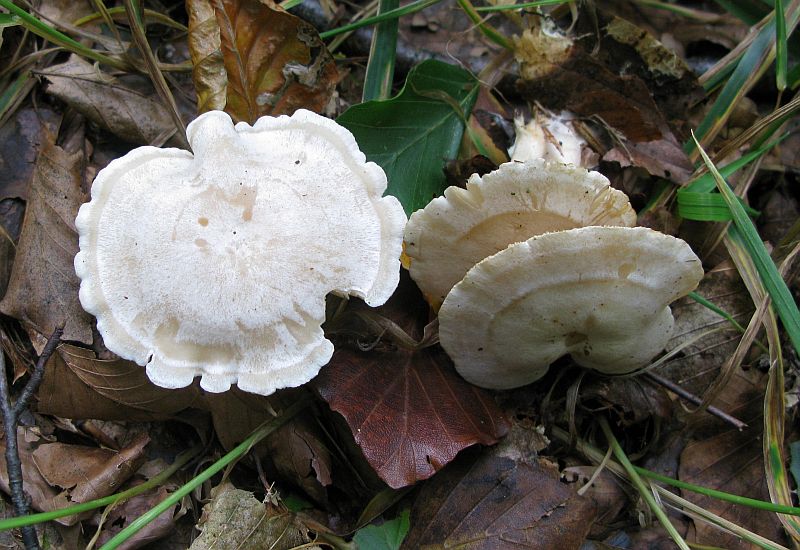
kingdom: Fungi
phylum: Basidiomycota
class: Agaricomycetes
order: Agaricales
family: Tricholomataceae
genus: Clitocybe
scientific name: Clitocybe phyllophila
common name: løv-tragthat
